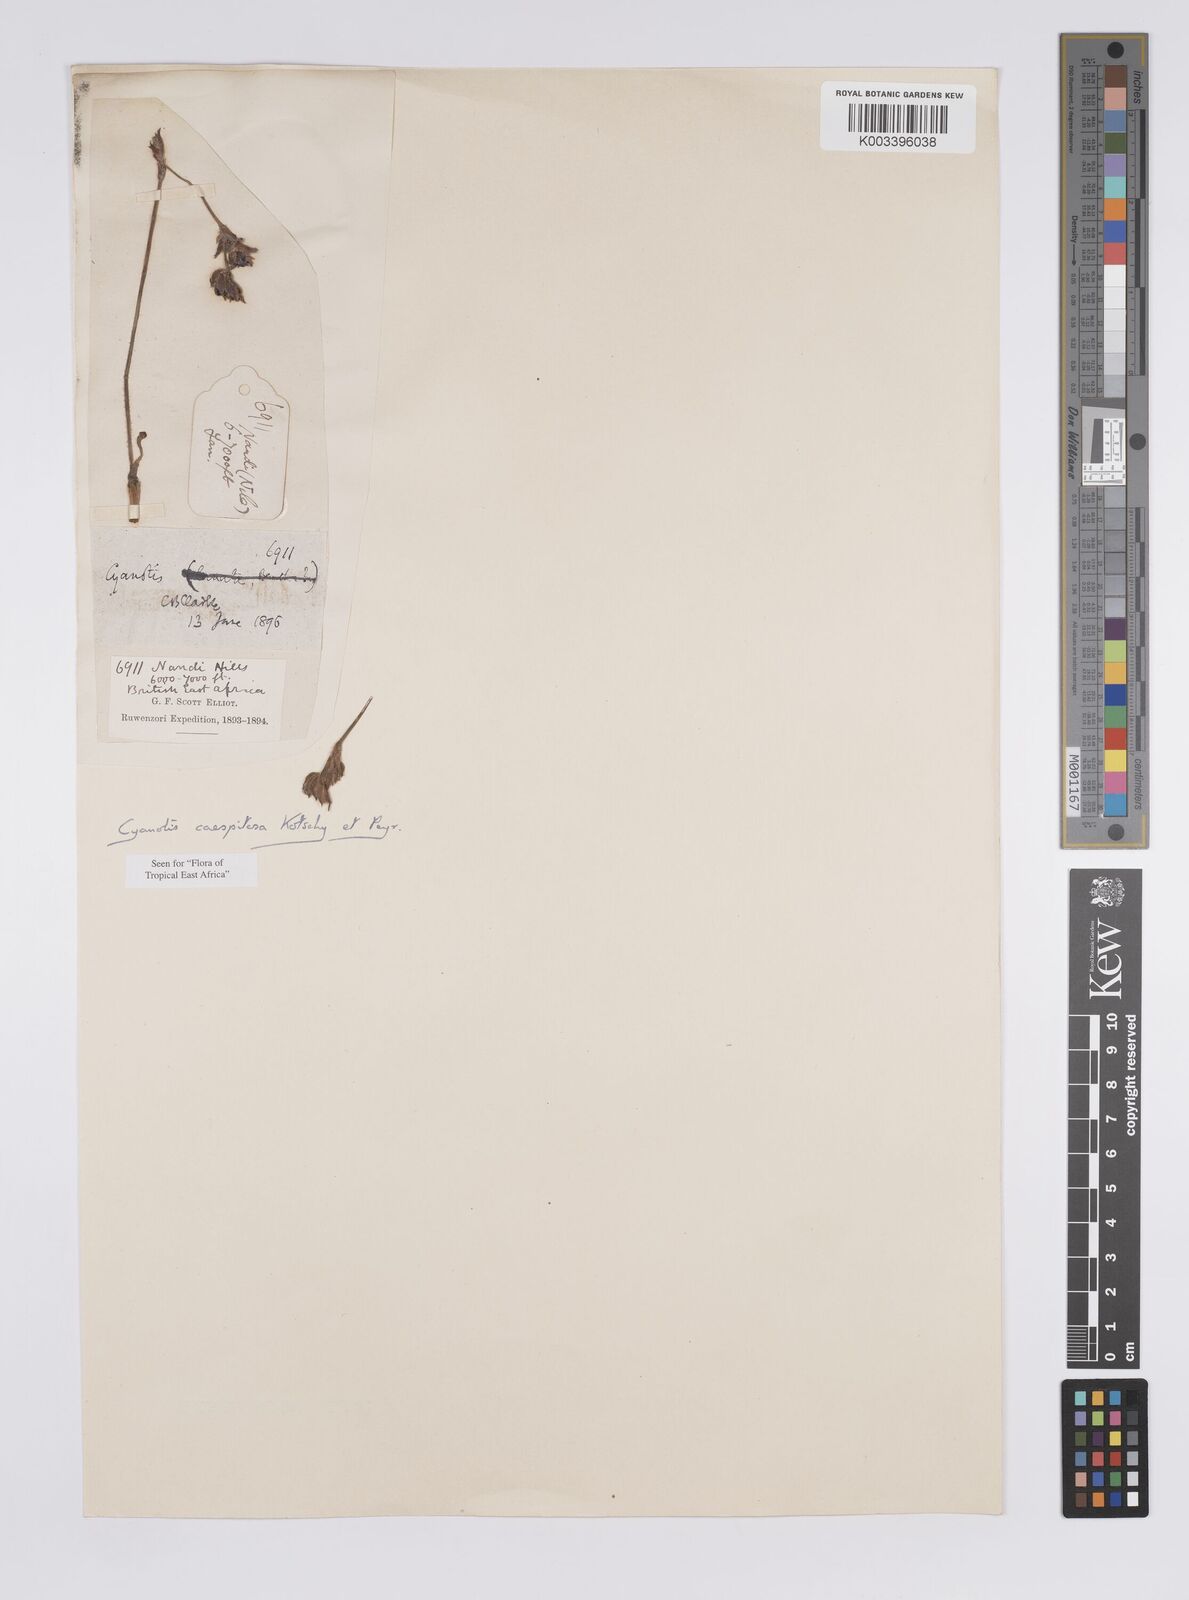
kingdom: Plantae
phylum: Tracheophyta
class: Liliopsida
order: Commelinales
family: Commelinaceae
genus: Cyanotis
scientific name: Cyanotis caespitosa
